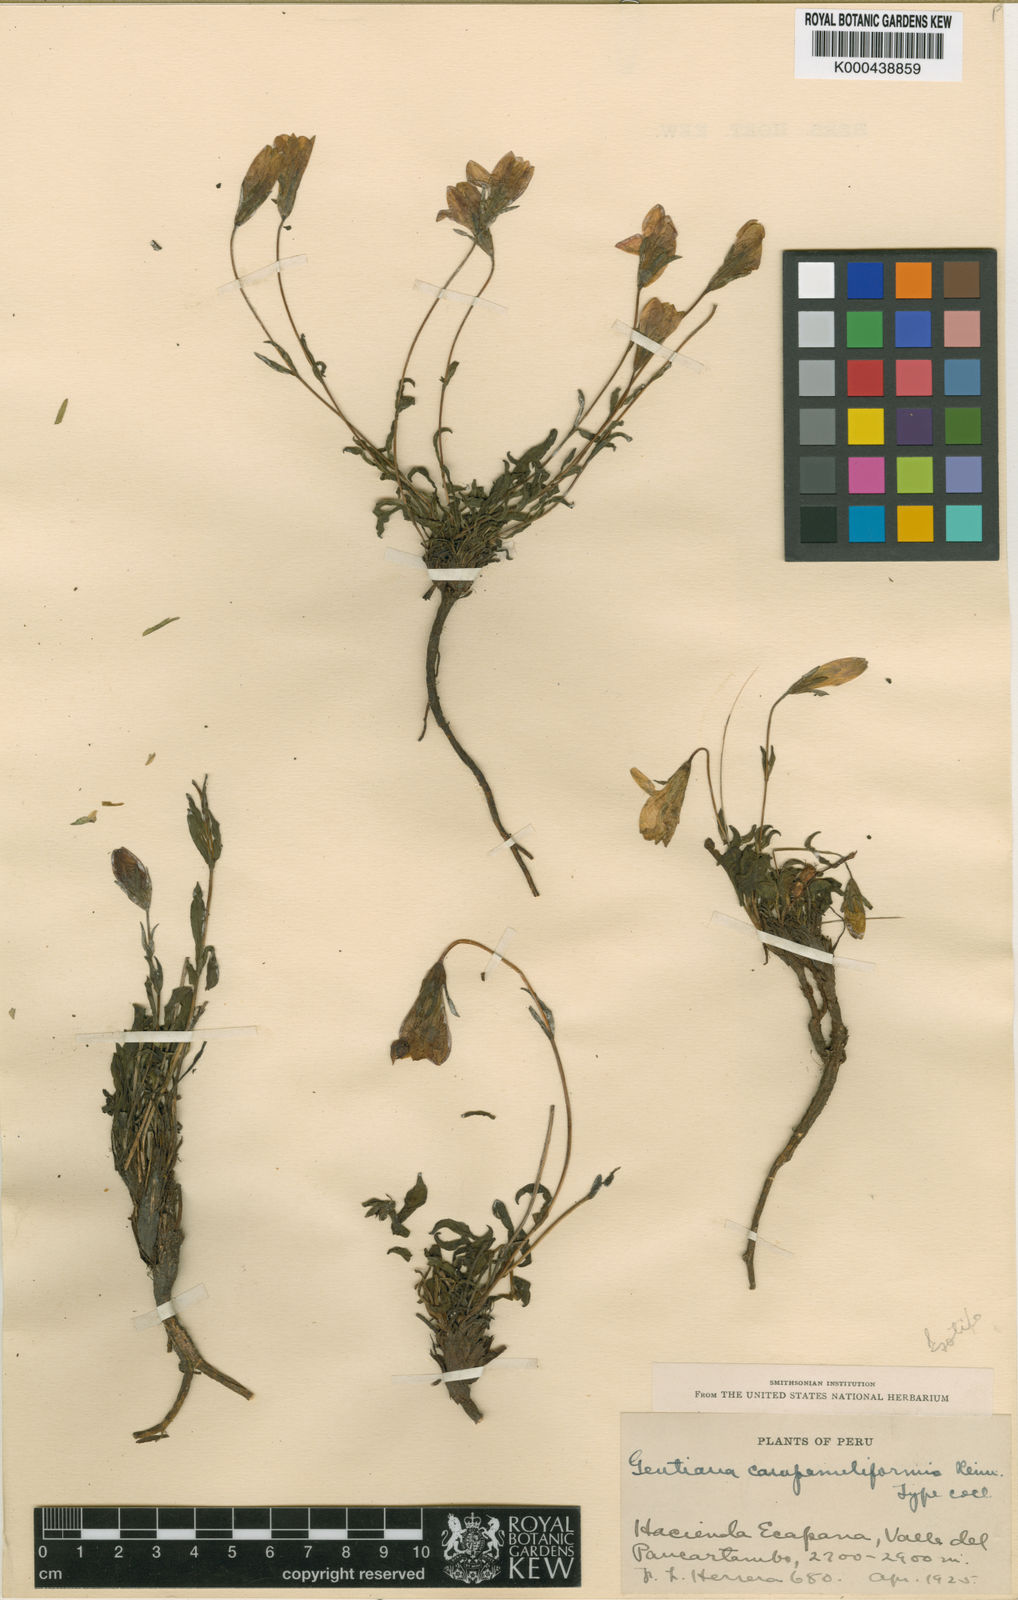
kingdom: Plantae
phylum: Tracheophyta
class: Magnoliopsida
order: Gentianales
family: Gentianaceae
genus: Gentianella
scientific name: Gentianella campanuliformis
